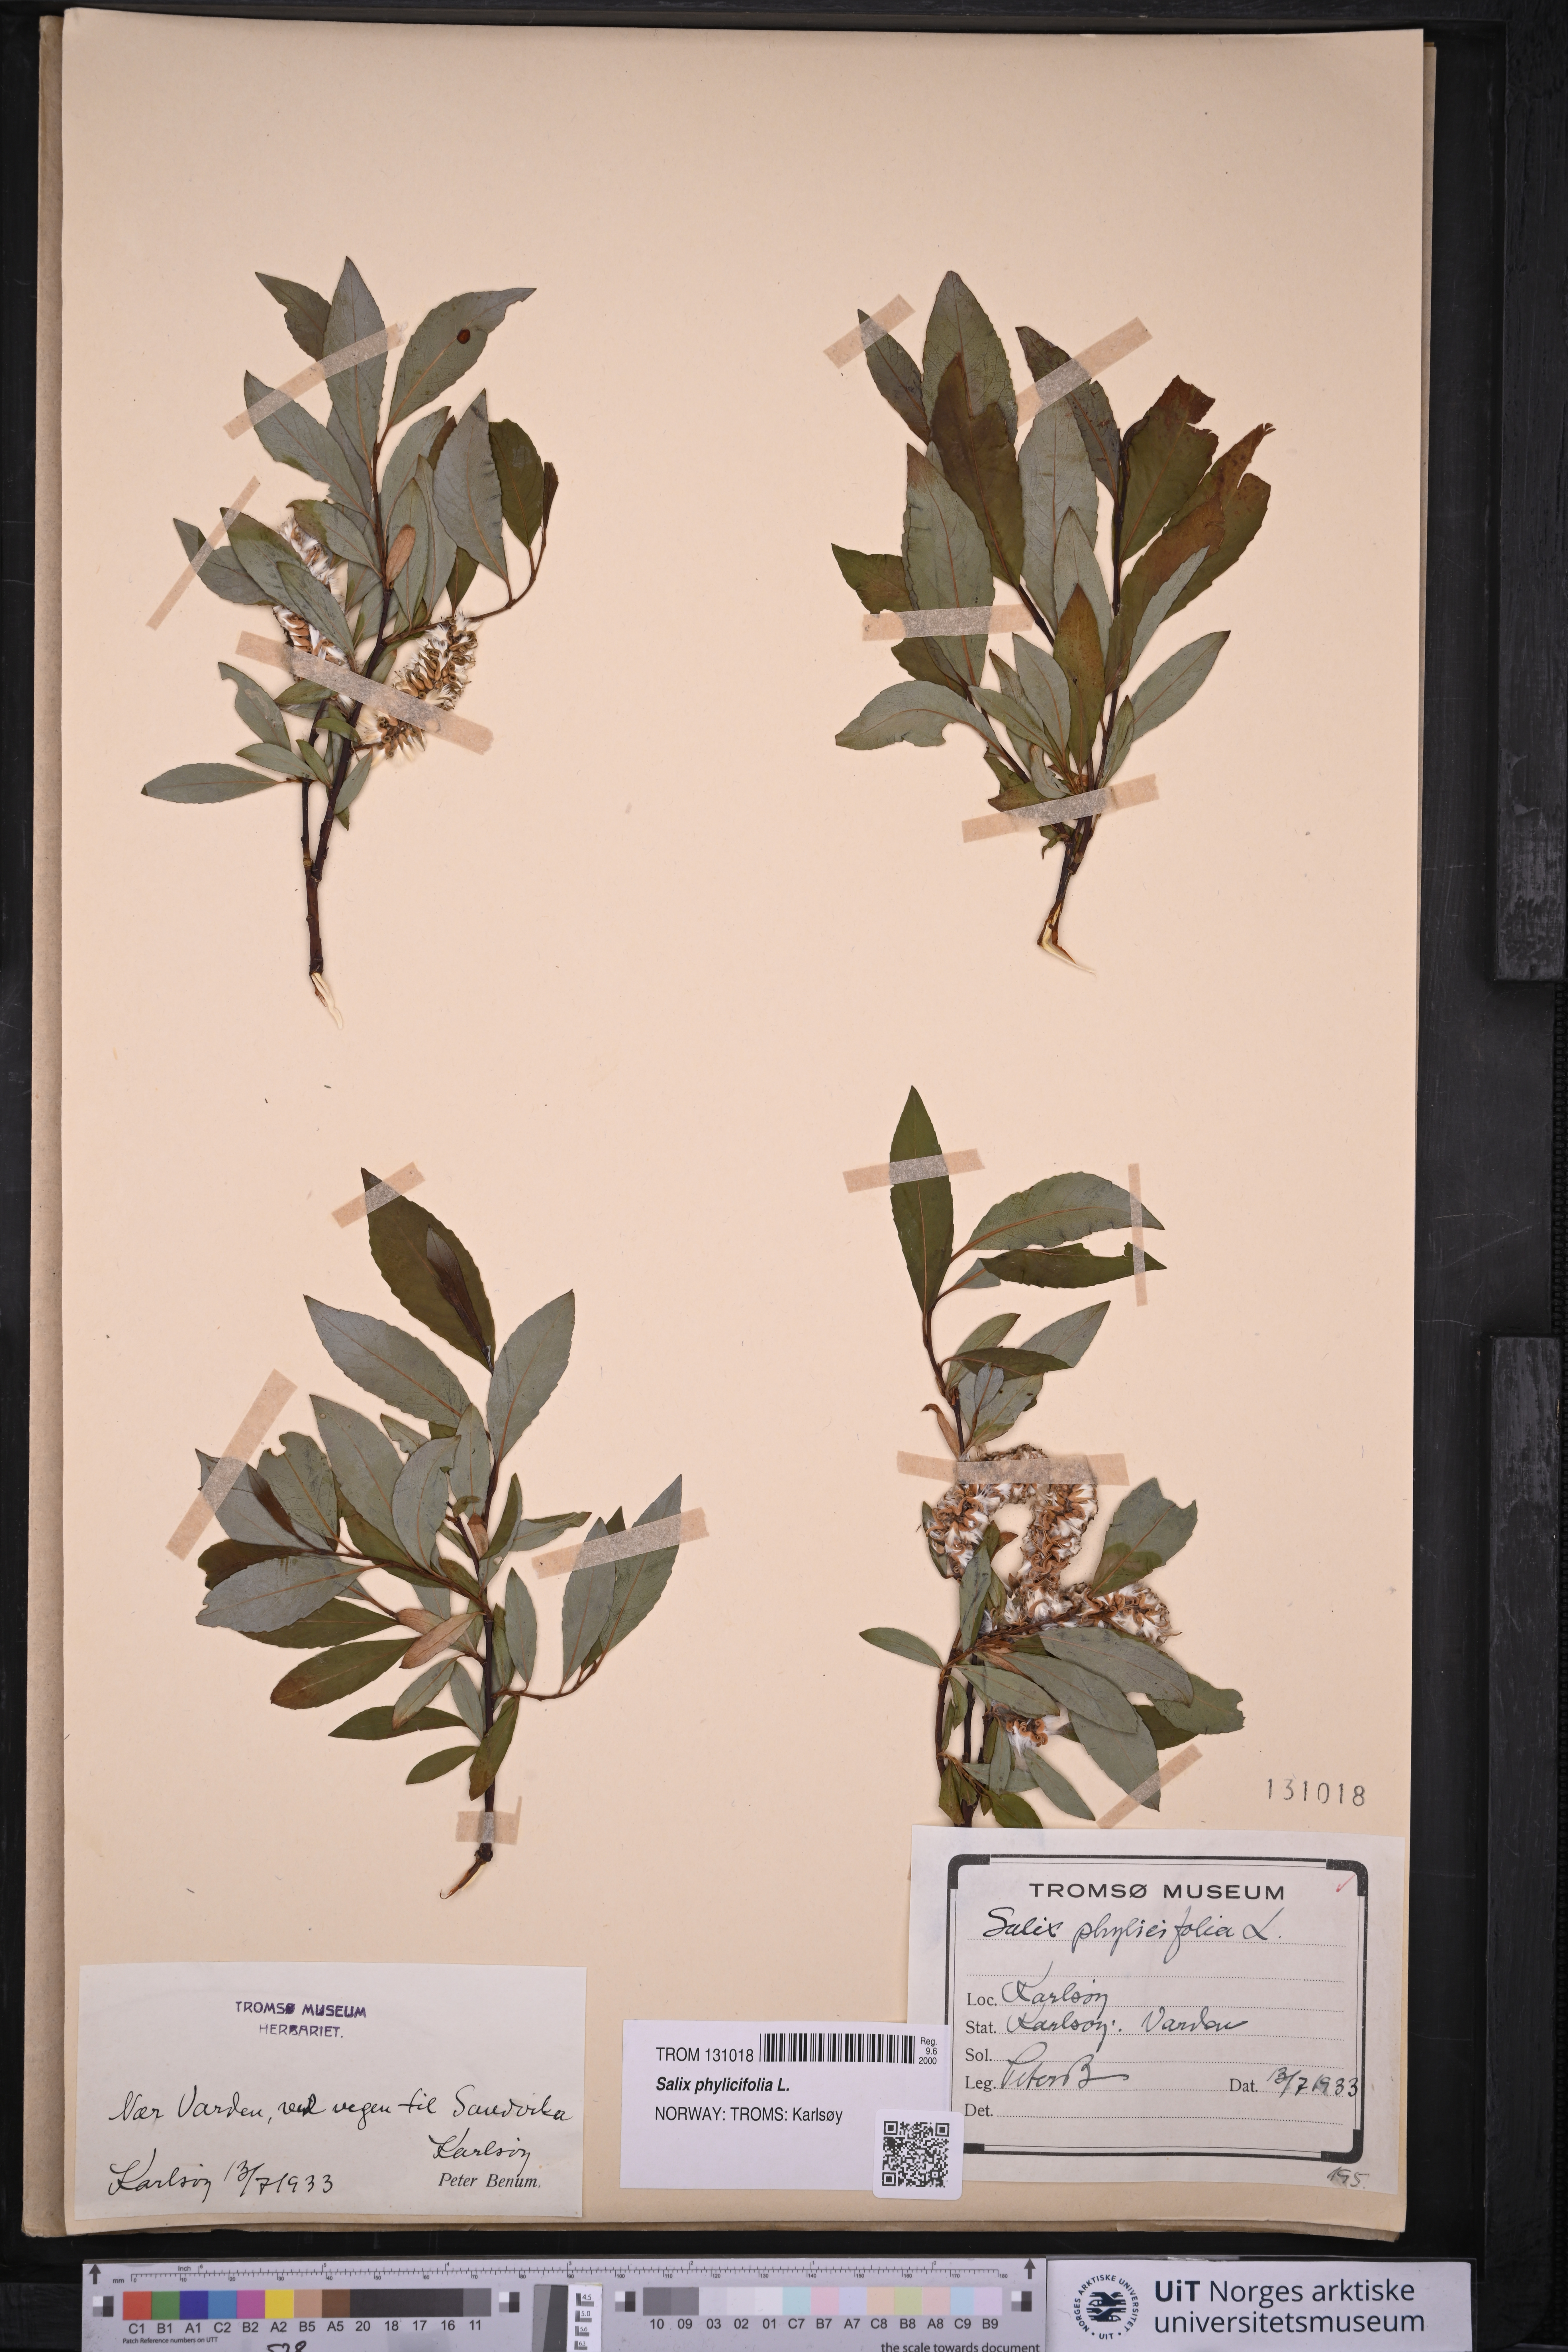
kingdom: Plantae
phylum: Tracheophyta
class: Magnoliopsida
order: Malpighiales
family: Salicaceae
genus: Salix
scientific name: Salix phylicifolia
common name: Tea-leaved willow
